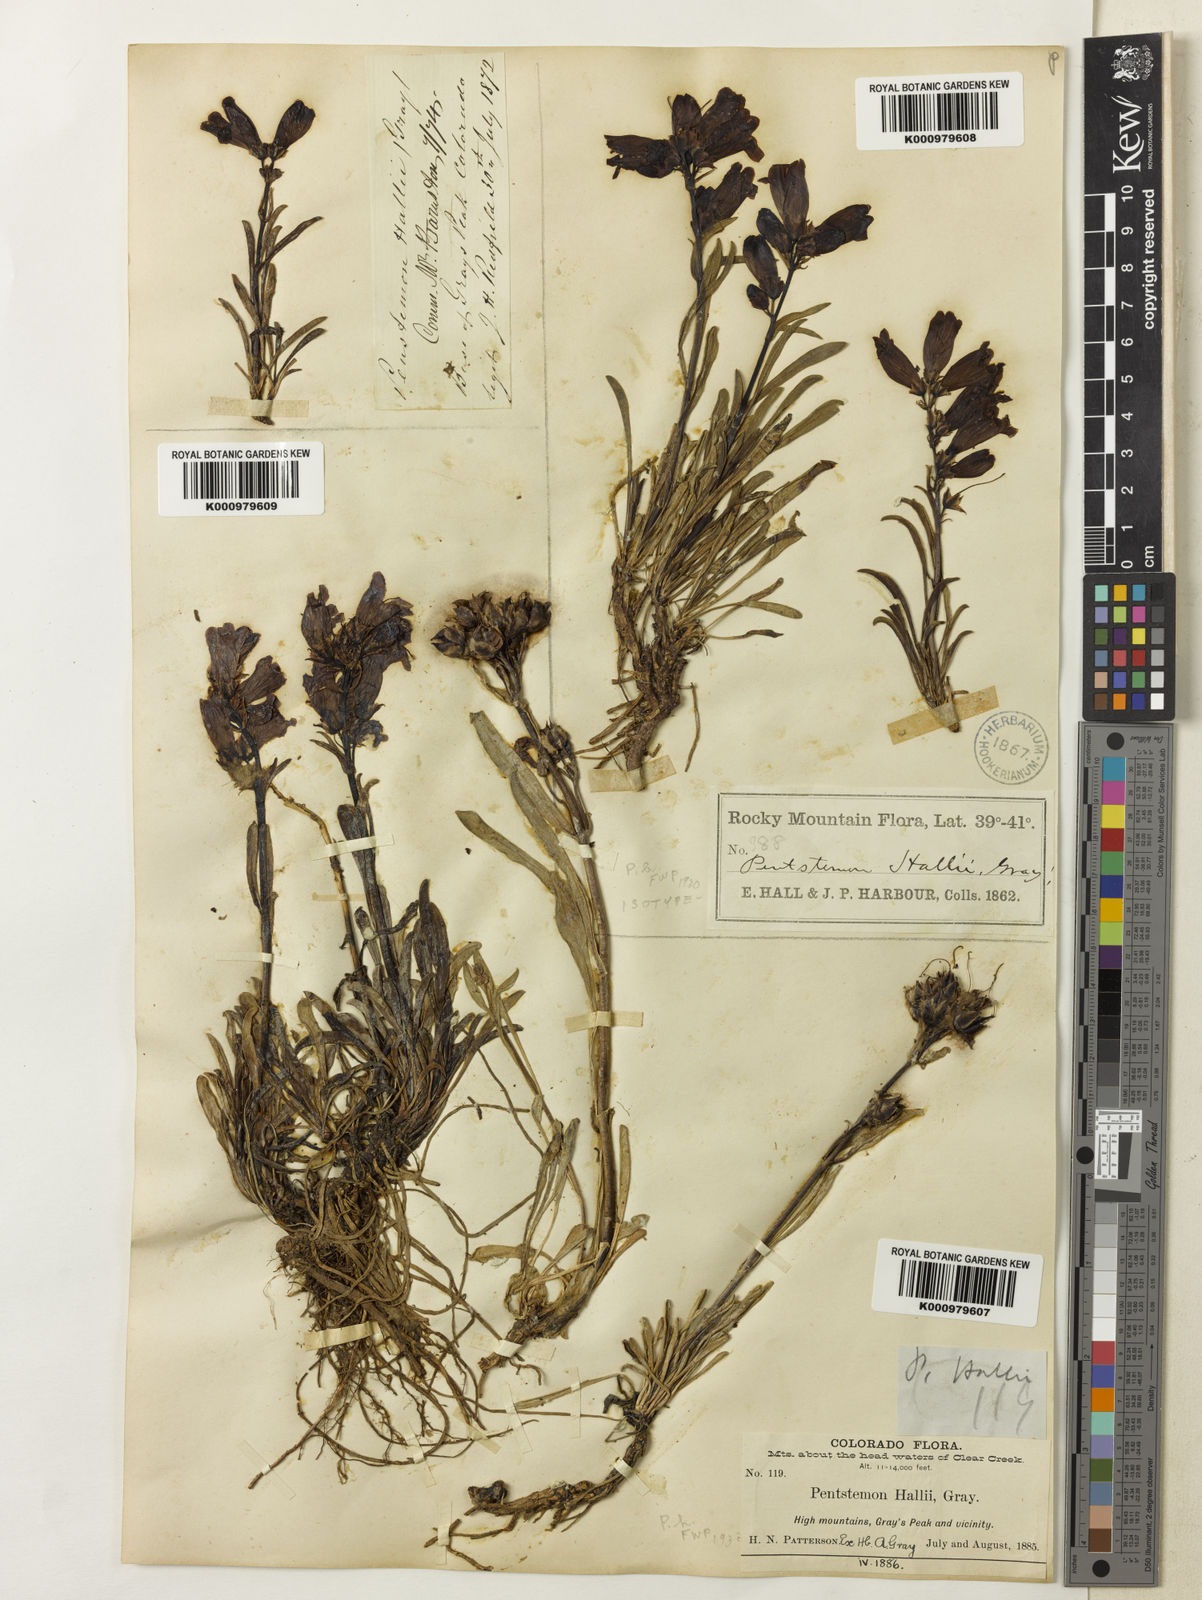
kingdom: Plantae
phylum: Tracheophyta
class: Magnoliopsida
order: Lamiales
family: Plantaginaceae
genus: Penstemon
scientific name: Penstemon hallii
